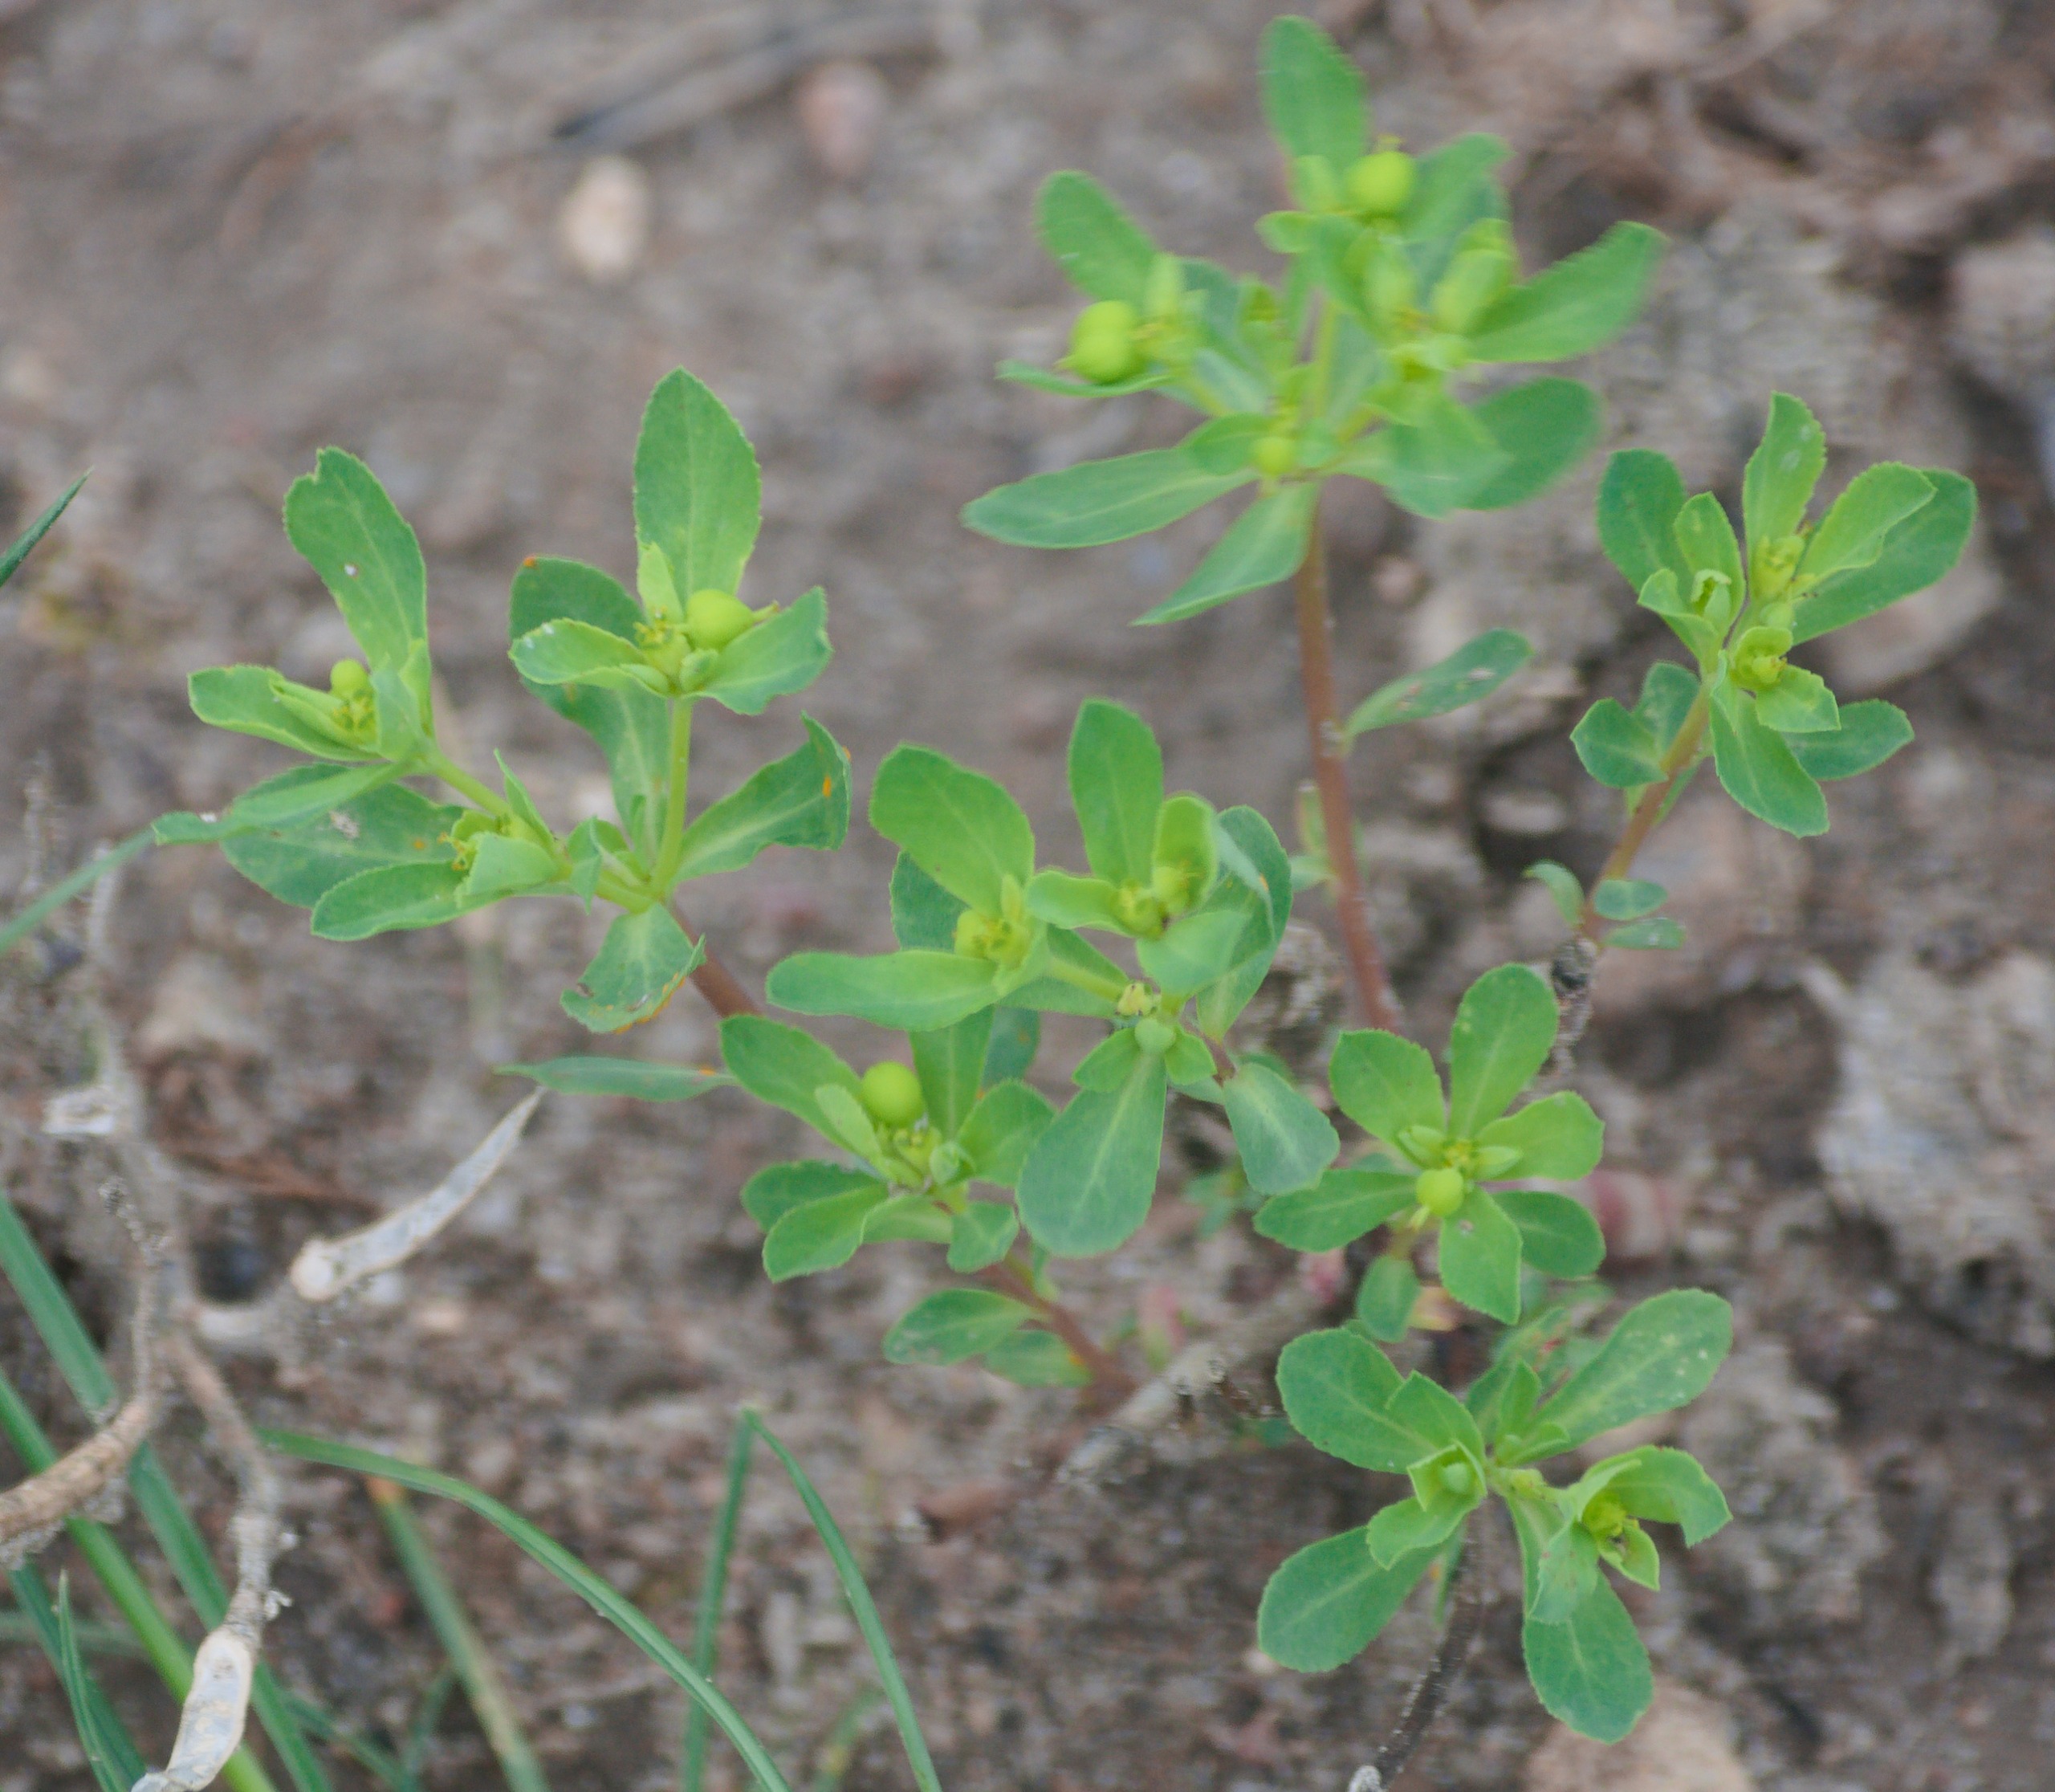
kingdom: Plantae
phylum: Tracheophyta
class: Magnoliopsida
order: Malpighiales
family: Euphorbiaceae
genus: Euphorbia
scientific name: Euphorbia helioscopia
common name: Skærm-vortemælk
